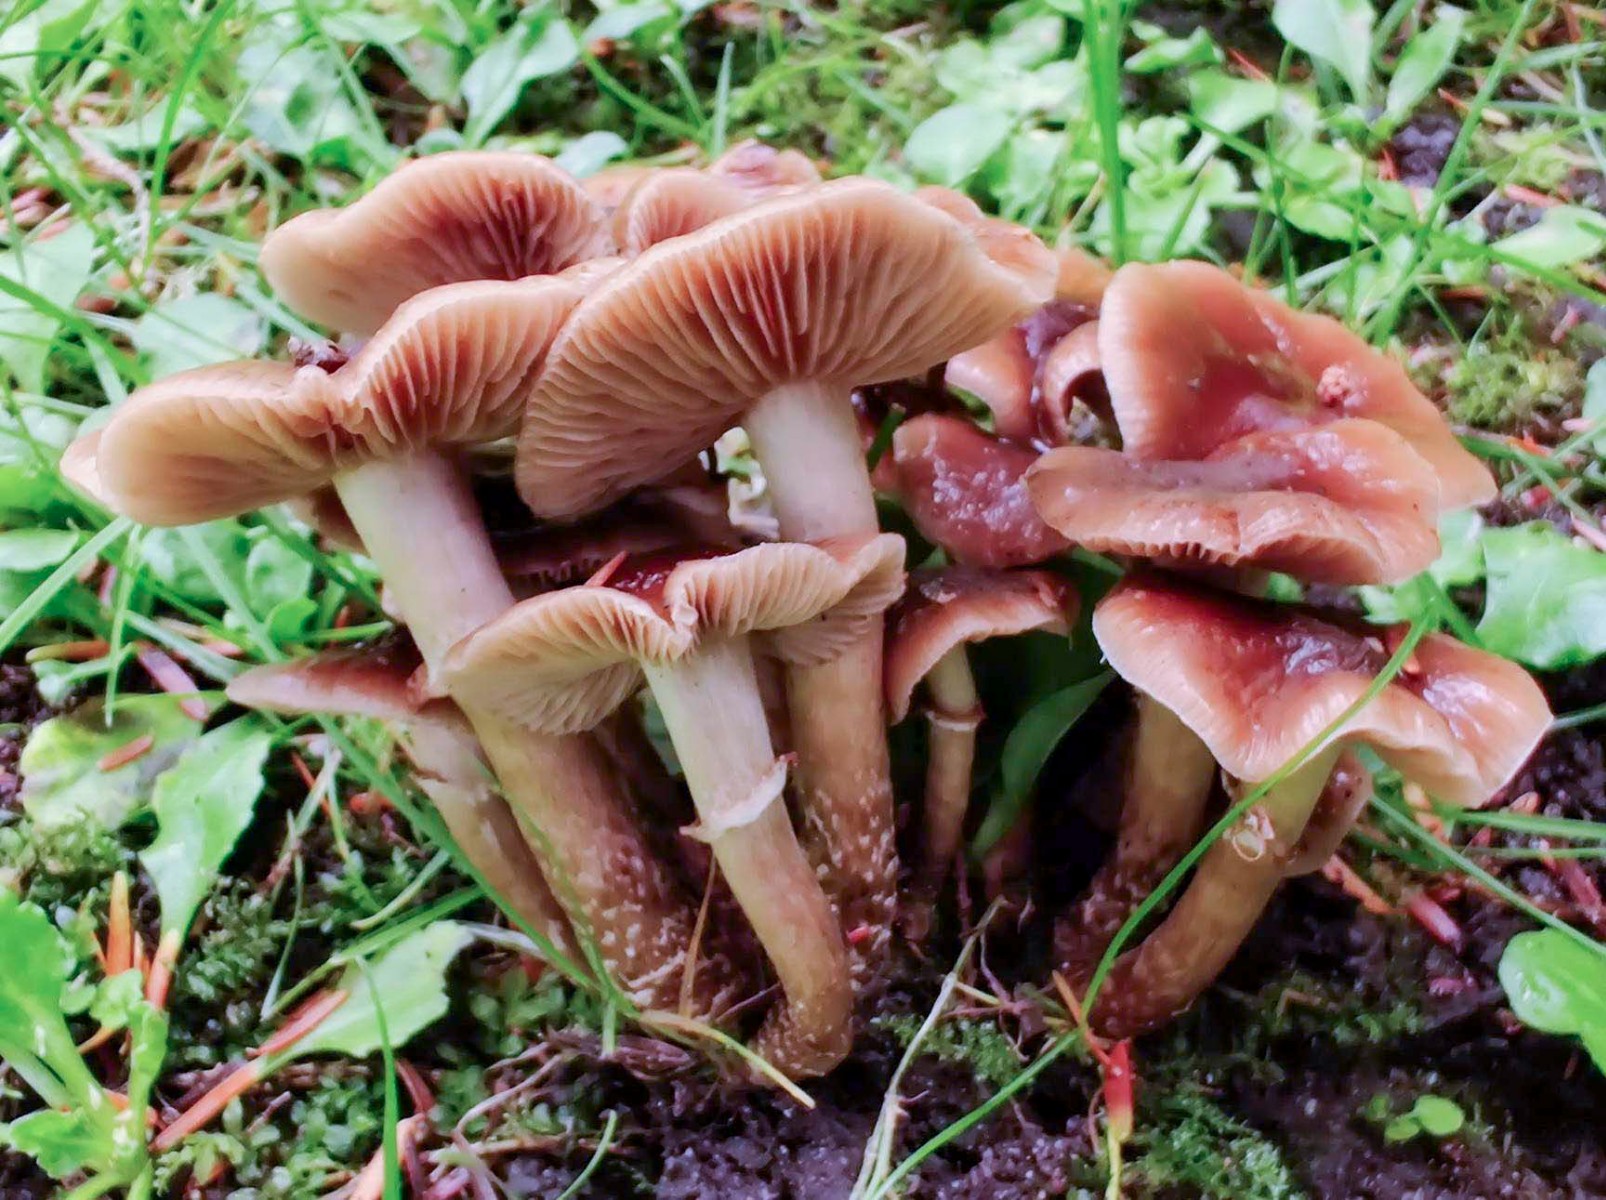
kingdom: Fungi
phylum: Basidiomycota
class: Agaricomycetes
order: Agaricales
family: Tubariaceae
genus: Cyclocybe
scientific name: Cyclocybe erebia
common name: mørk agerhat
